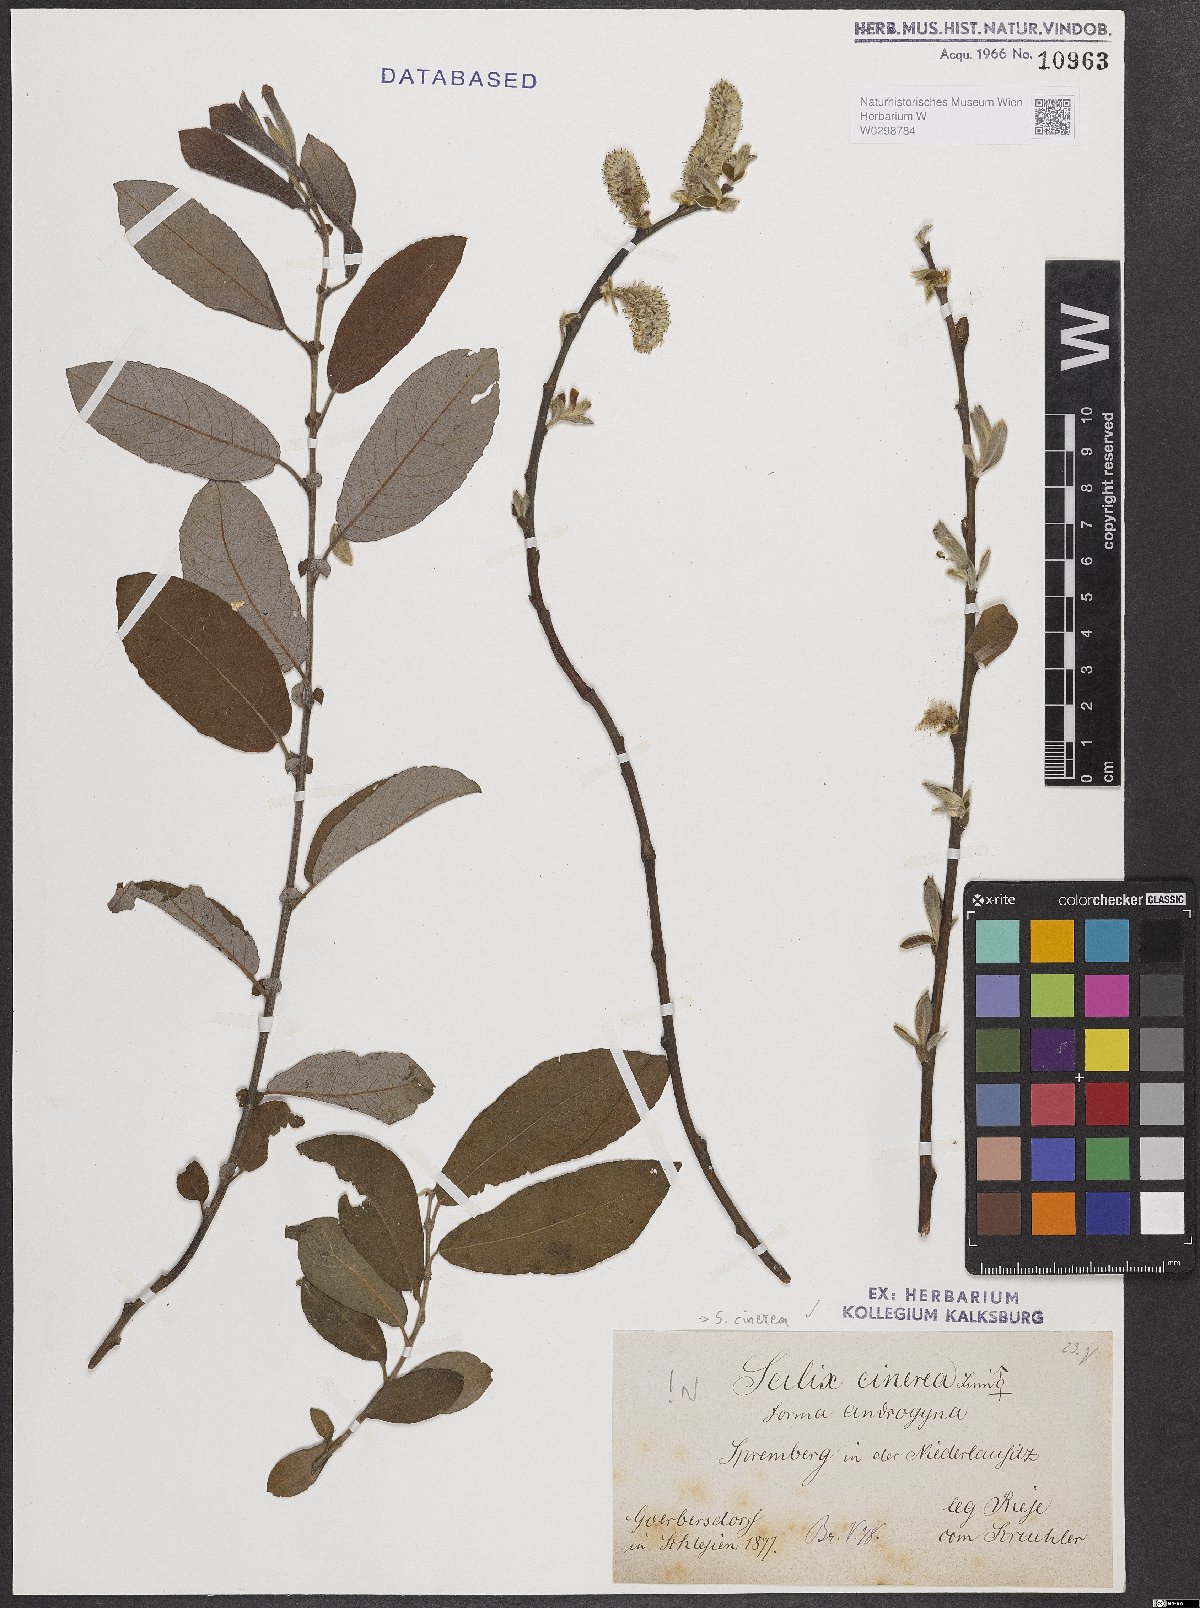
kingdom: Plantae
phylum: Tracheophyta
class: Magnoliopsida
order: Malpighiales
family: Salicaceae
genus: Salix
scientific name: Salix cinerea
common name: Common sallow
